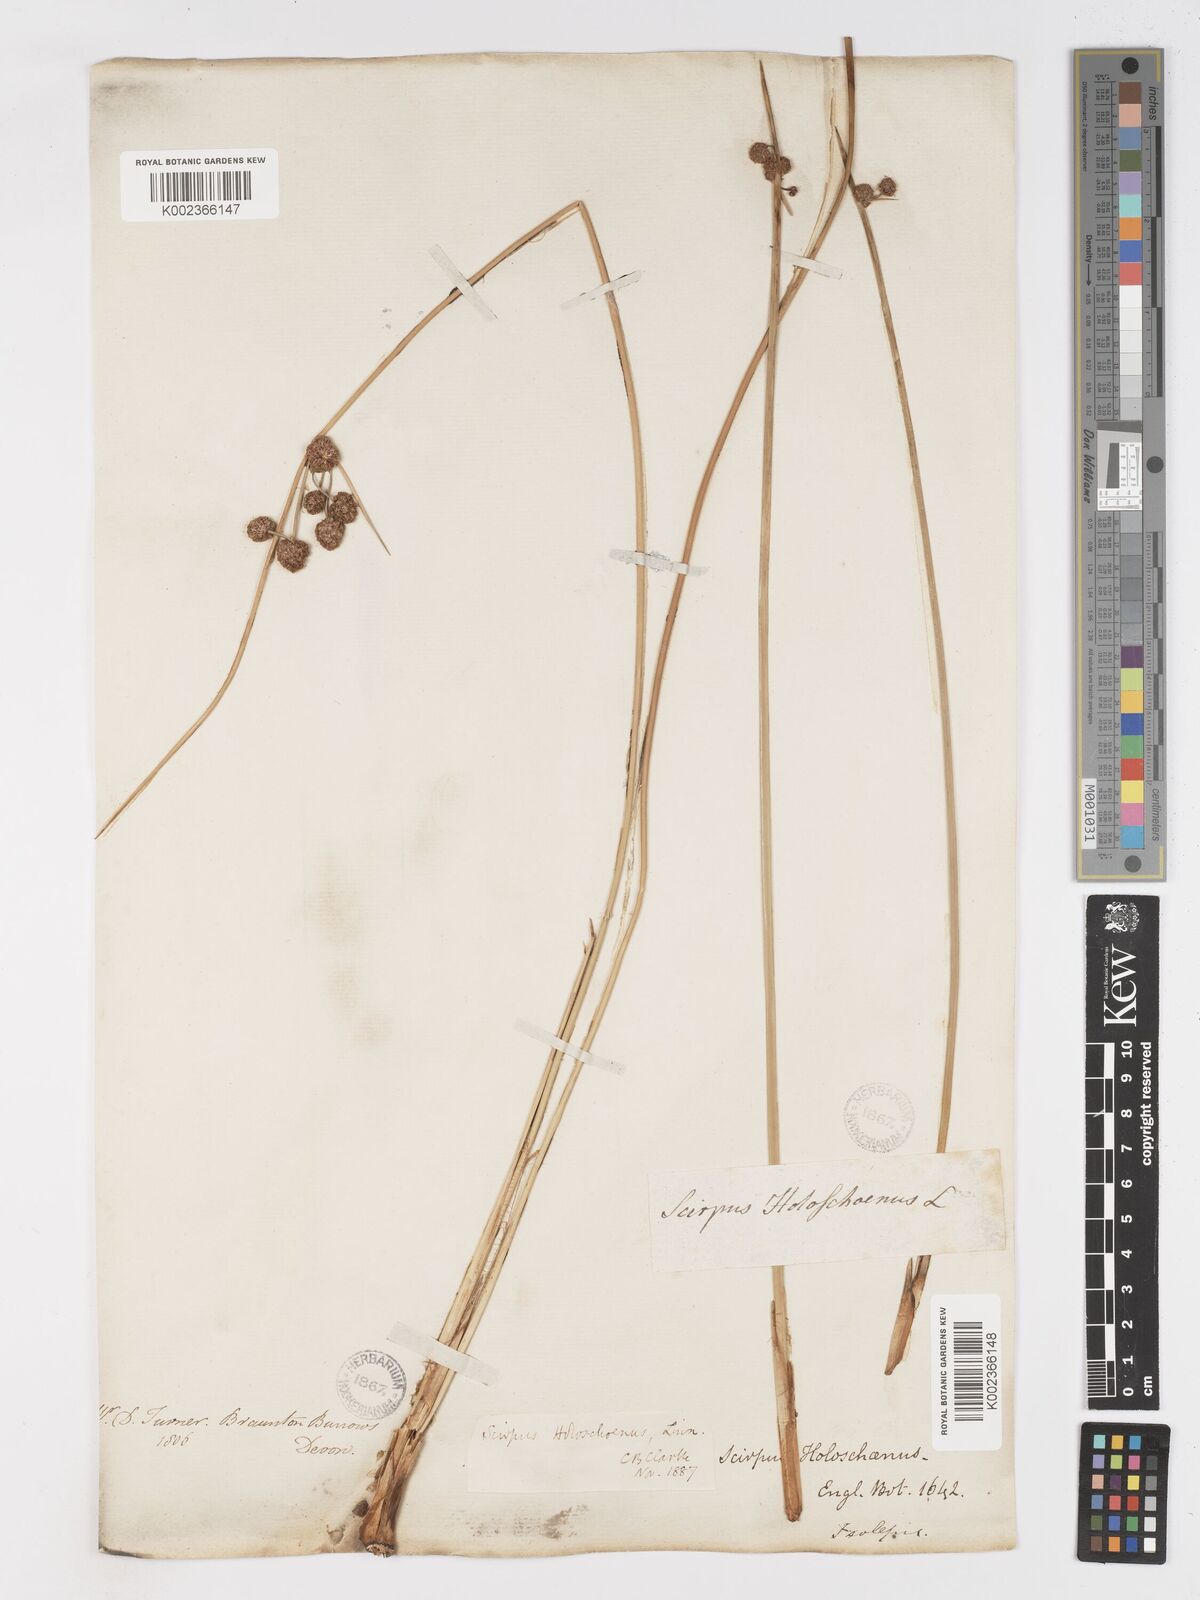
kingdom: Plantae
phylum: Tracheophyta
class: Liliopsida
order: Poales
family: Cyperaceae
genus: Scirpoides
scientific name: Scirpoides holoschoenus
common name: Round-headed club-rush
